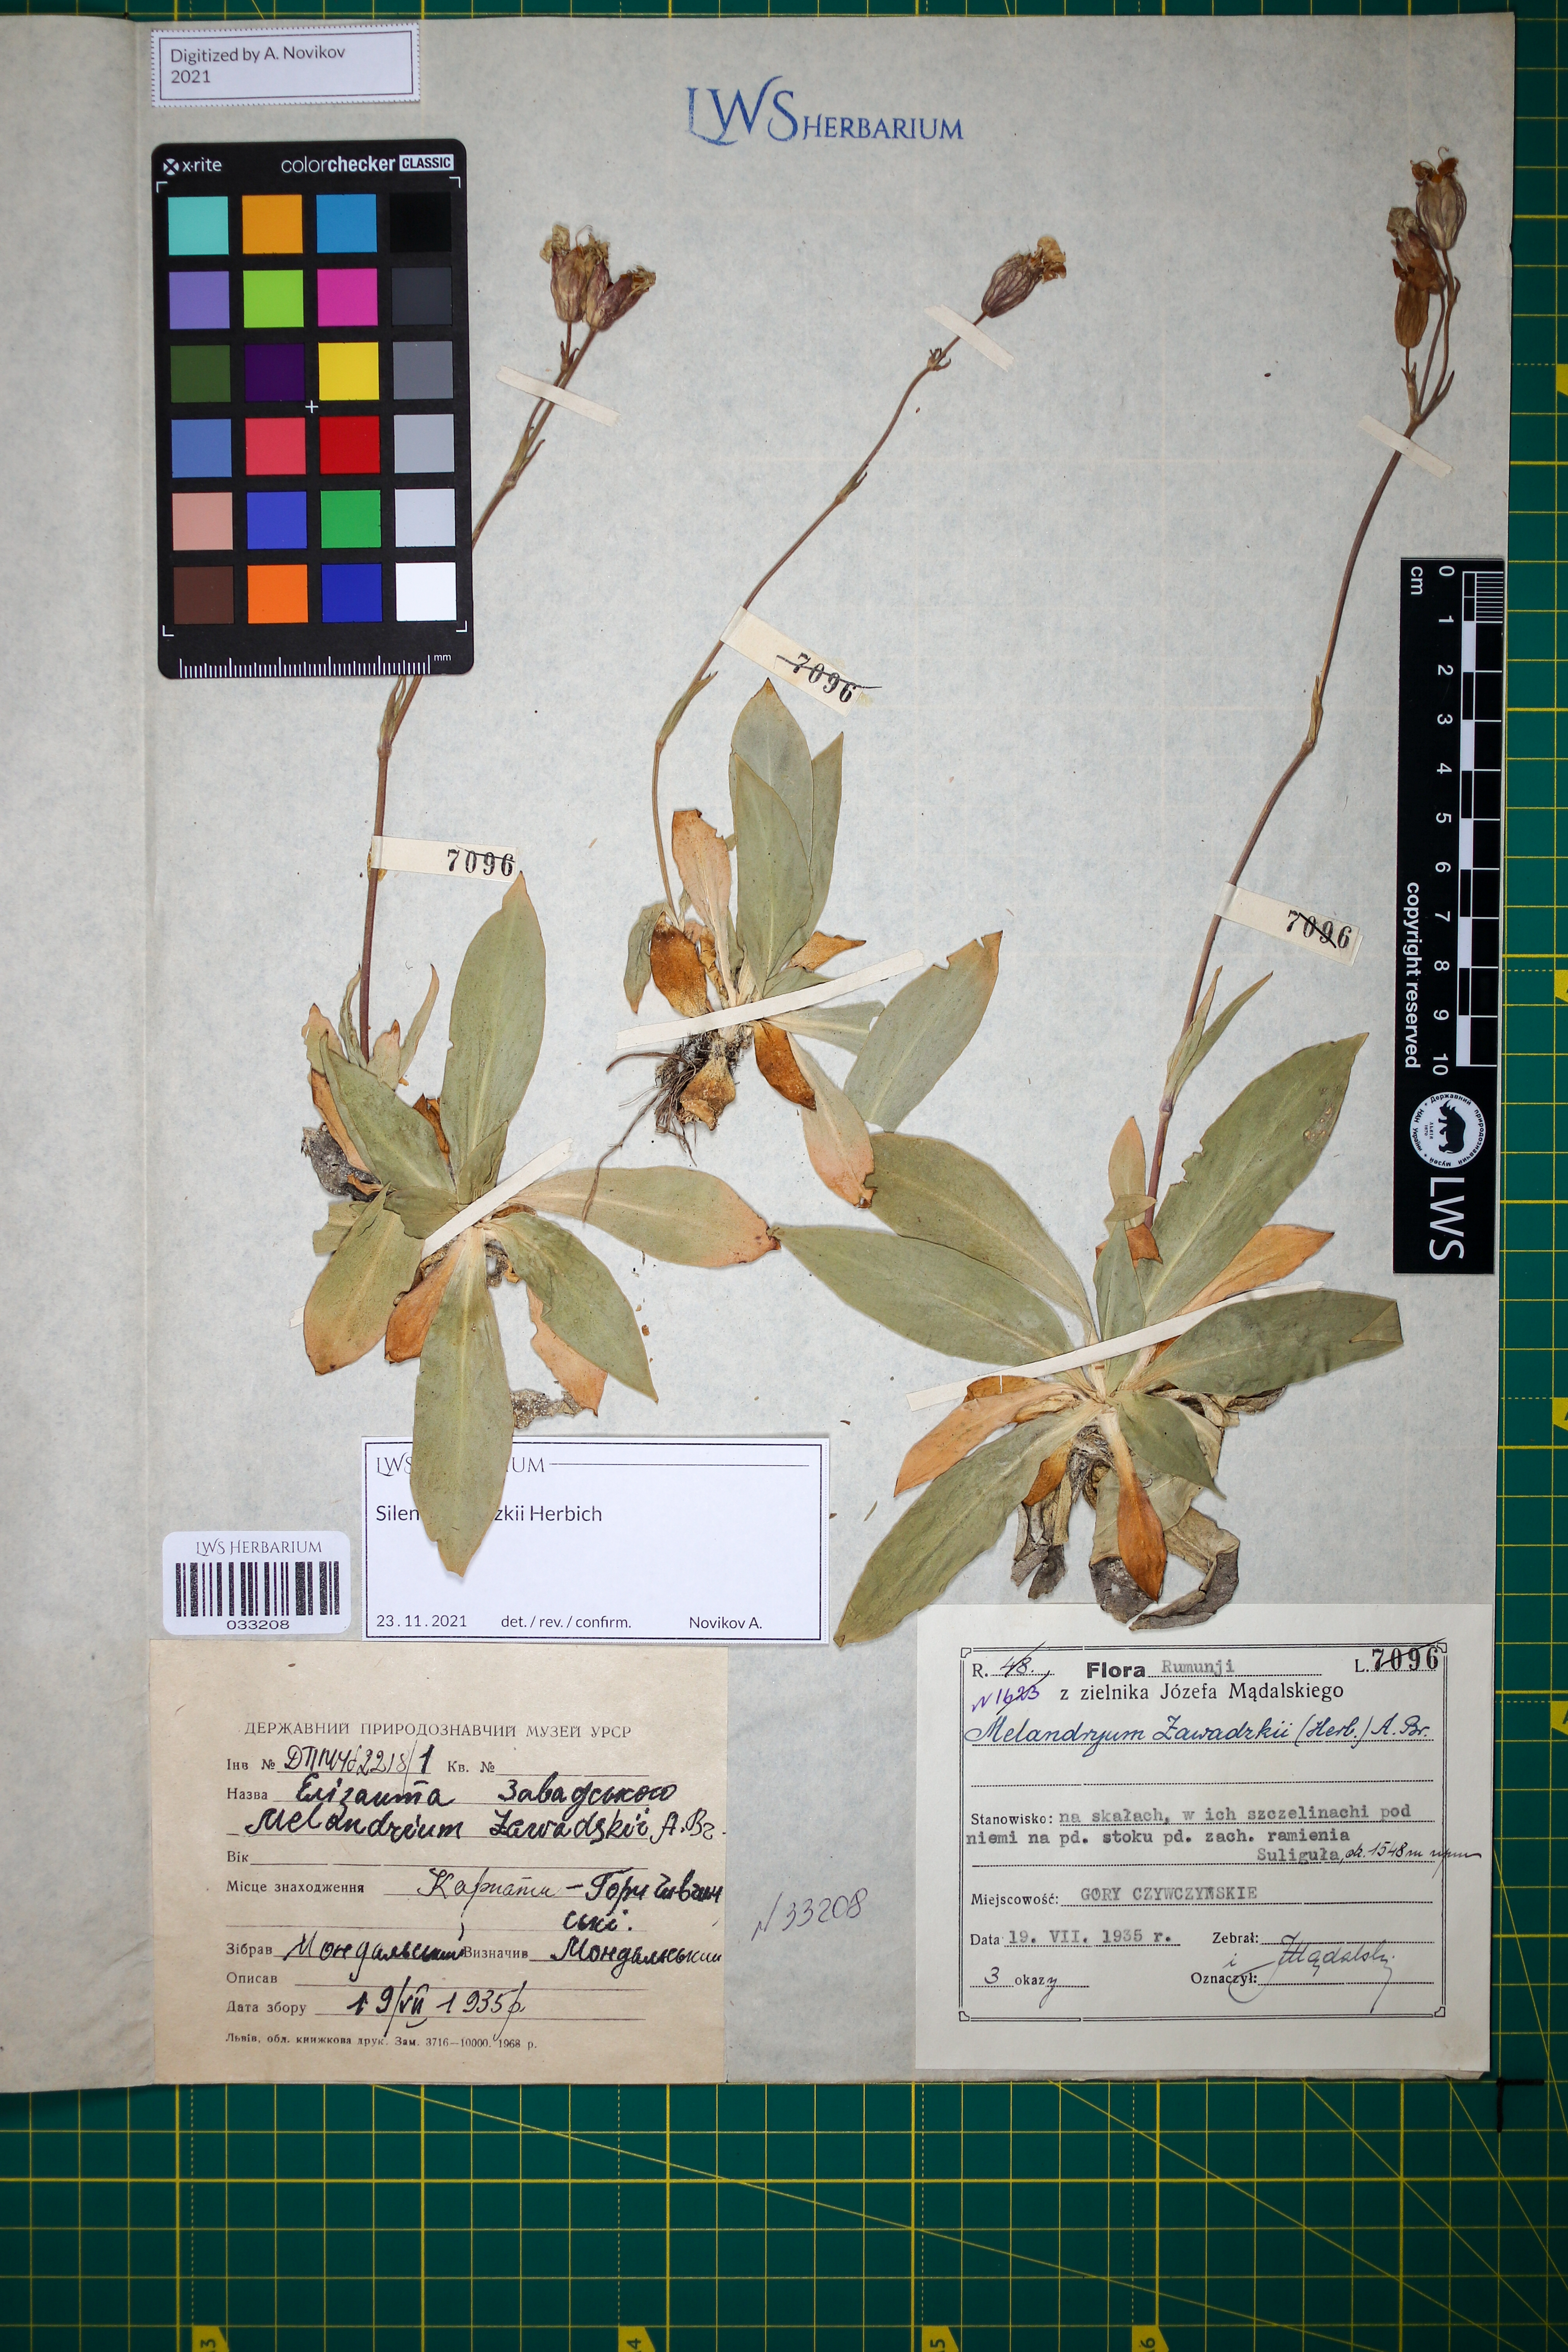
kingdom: Plantae
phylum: Tracheophyta
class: Magnoliopsida
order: Caryophyllales
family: Caryophyllaceae
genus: Silene
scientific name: Silene zawadzkii
